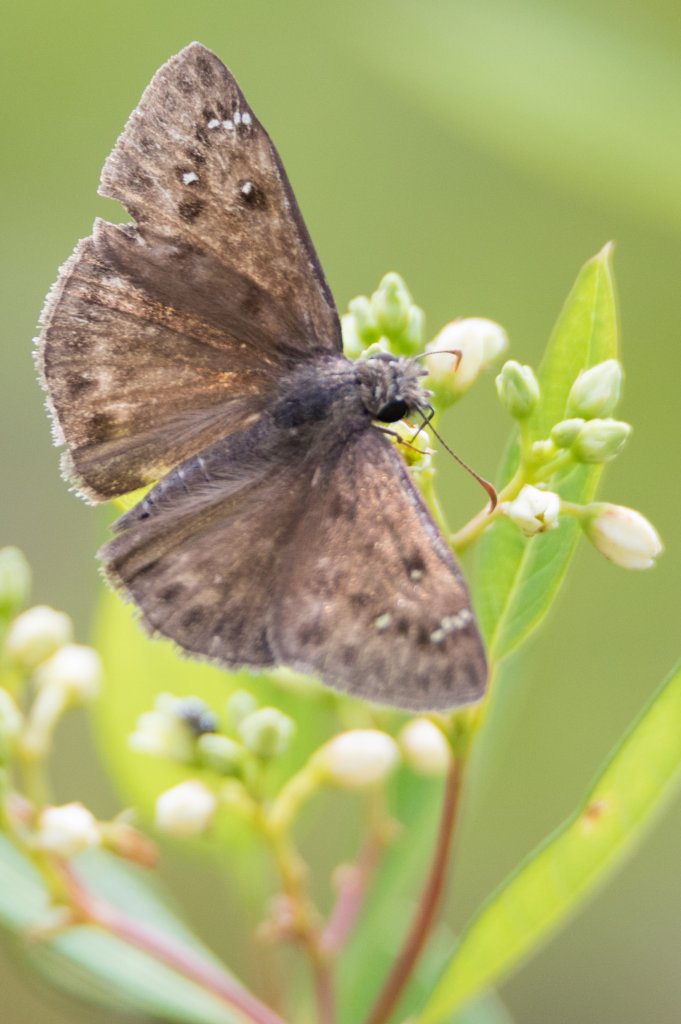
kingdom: Animalia
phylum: Arthropoda
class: Insecta
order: Lepidoptera
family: Hesperiidae
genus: Gesta
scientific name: Gesta
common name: Horace's Duskywing
